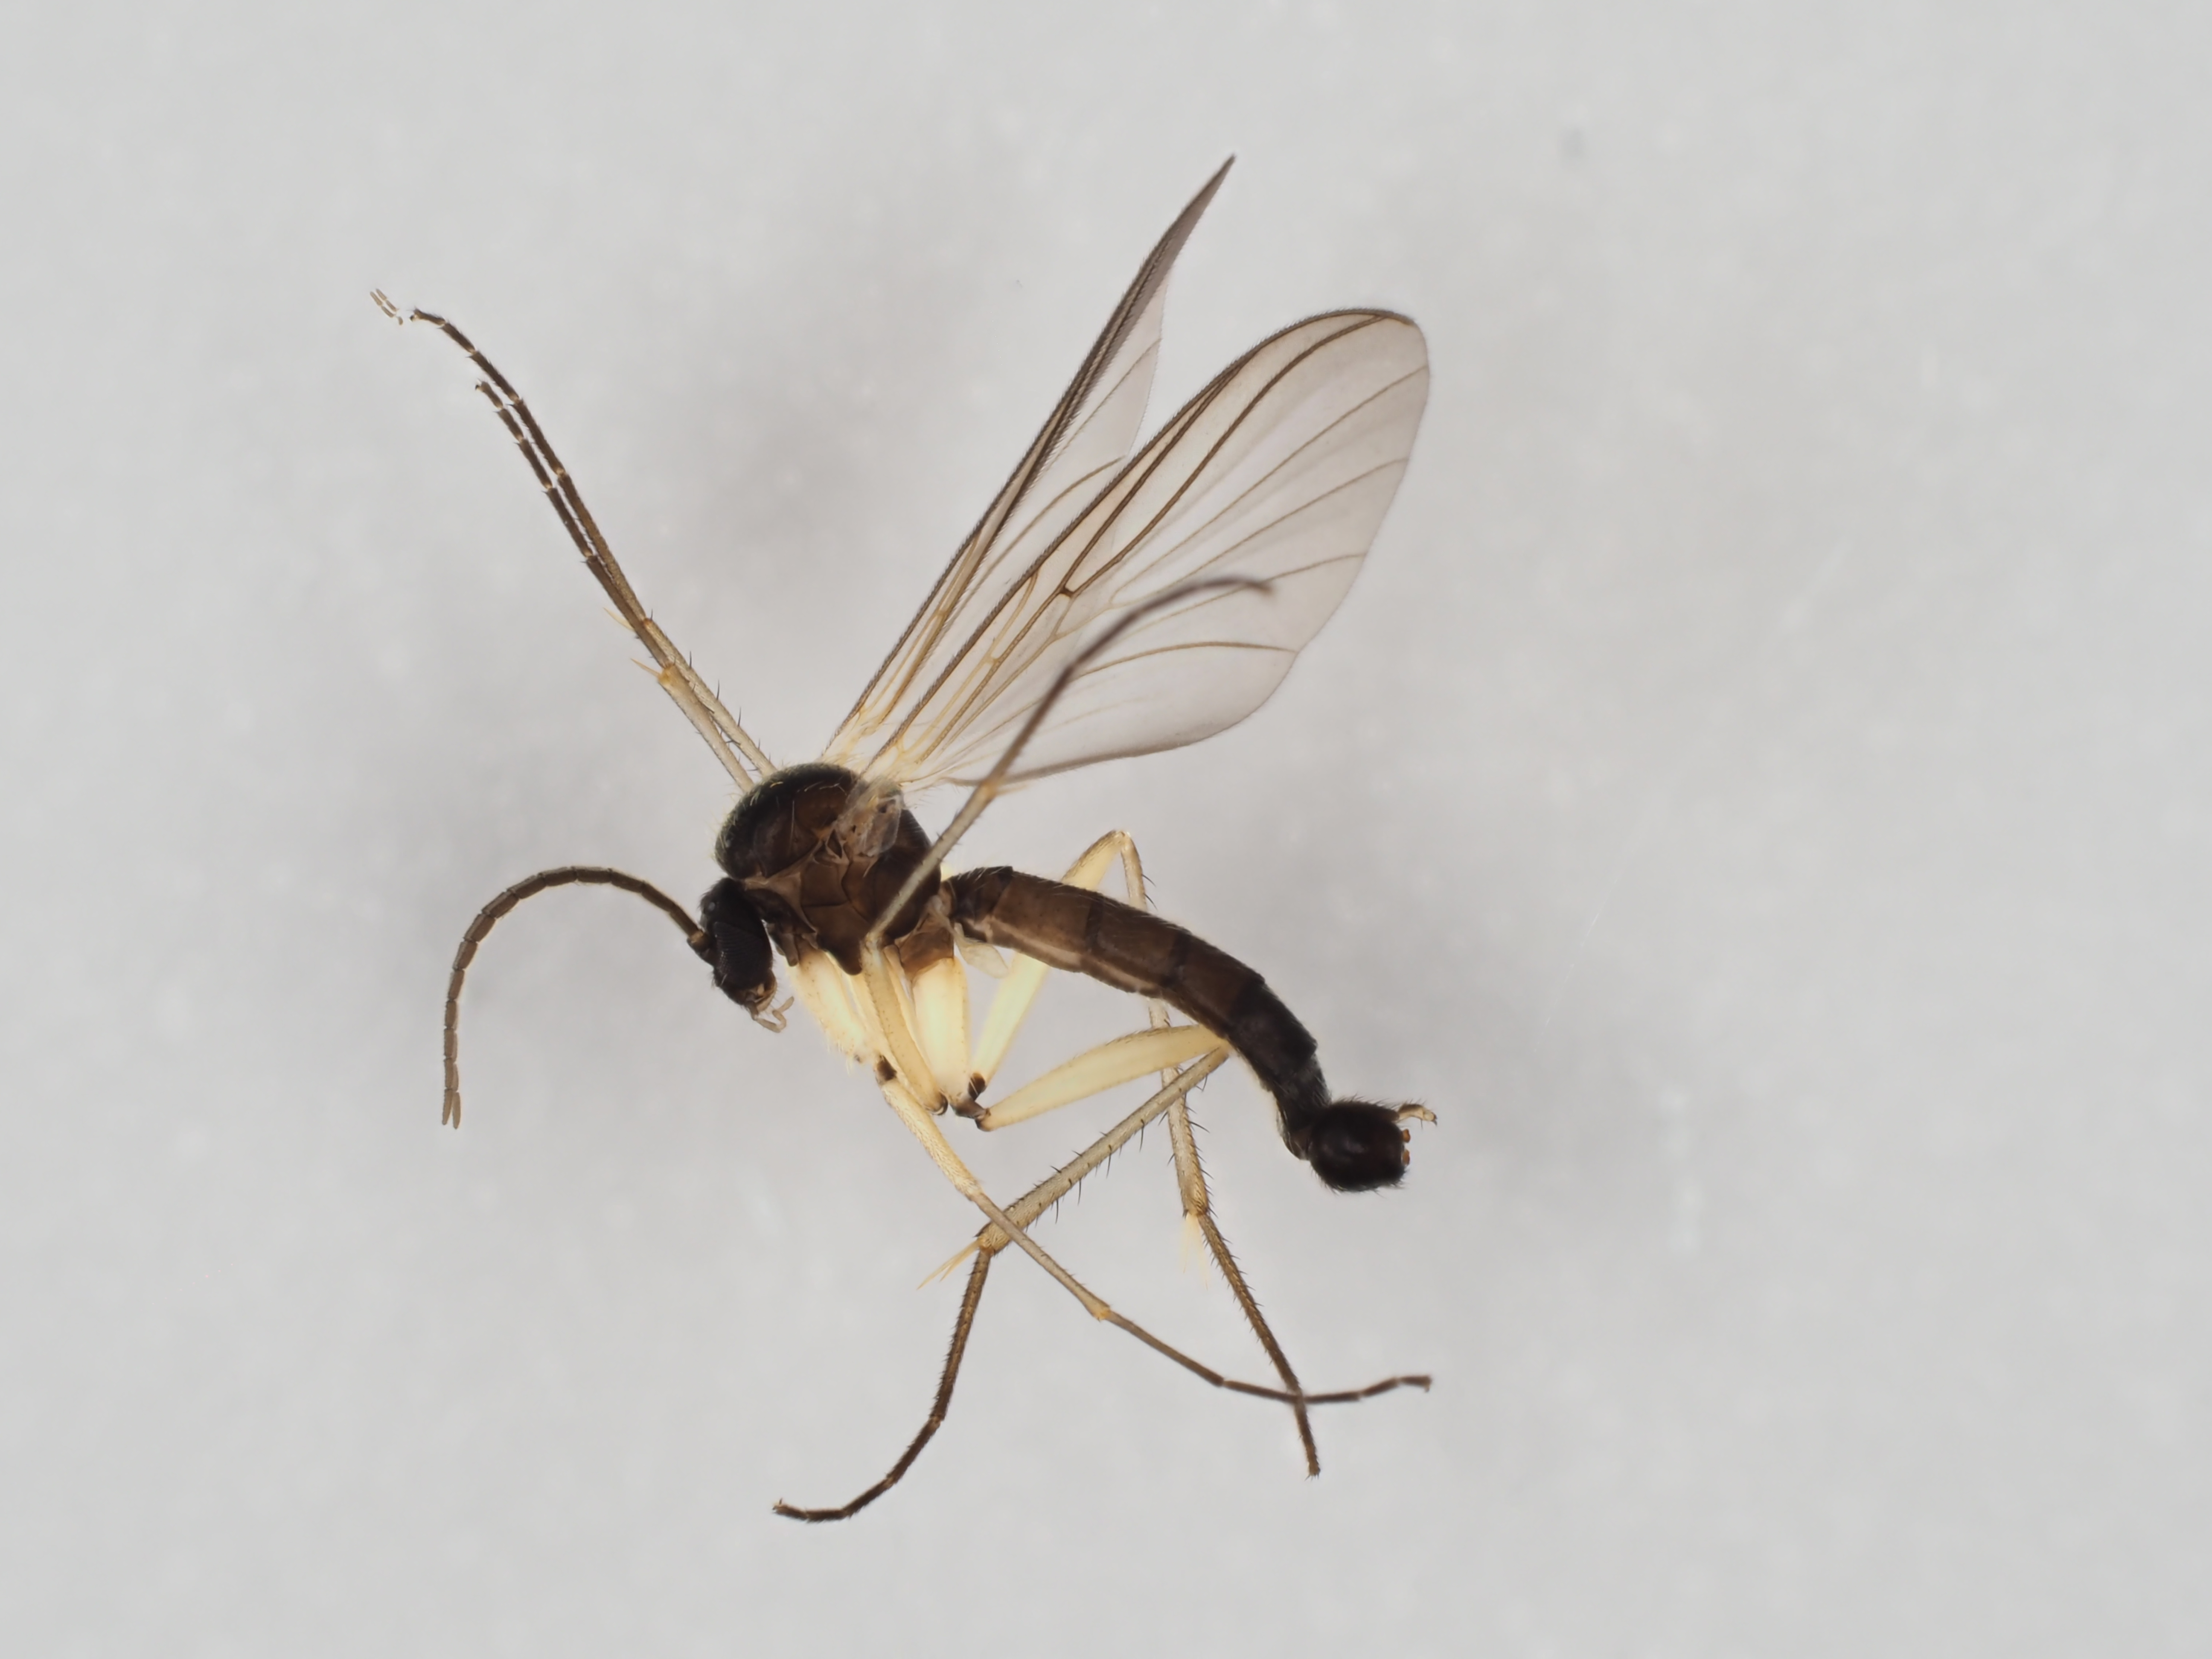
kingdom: Animalia
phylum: Arthropoda
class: Insecta
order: Diptera
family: Mycetophilidae
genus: Boletina
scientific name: Boletina nitiduloides
